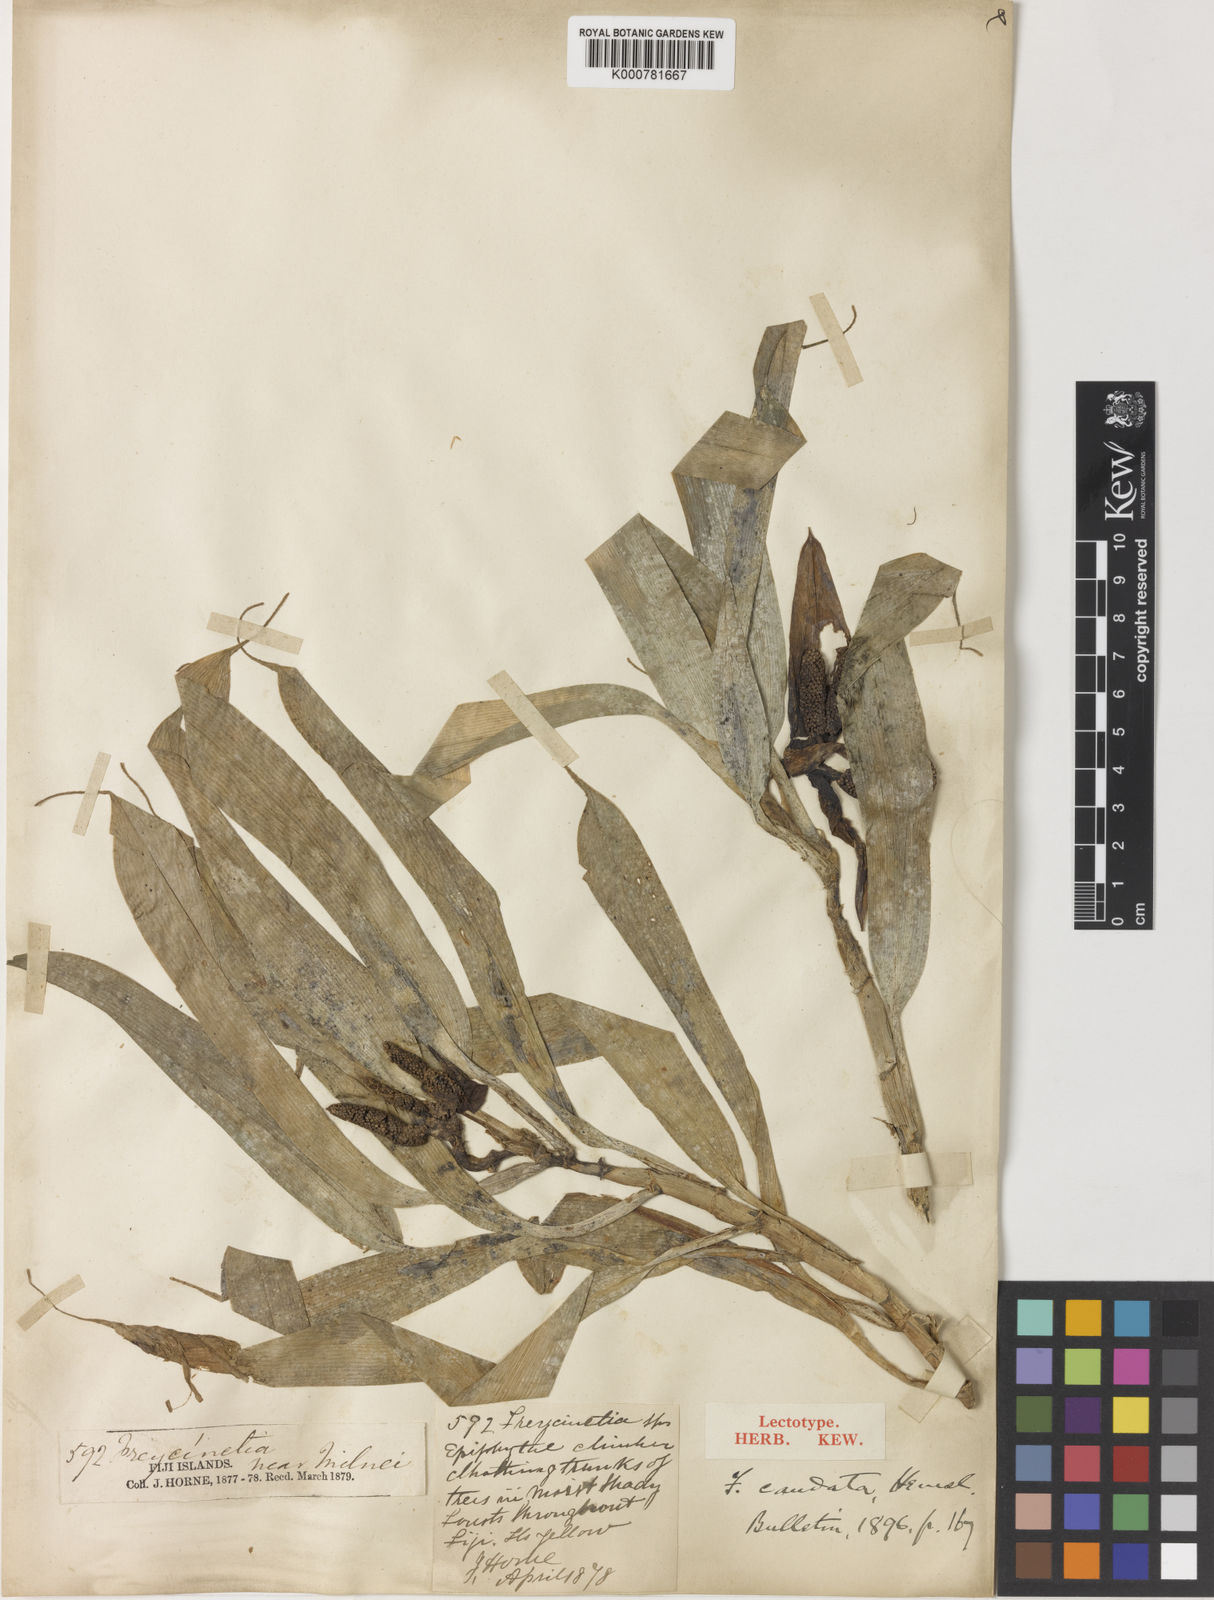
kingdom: Plantae
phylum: Tracheophyta
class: Liliopsida
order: Pandanales
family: Pandanaceae
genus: Freycinetia
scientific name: Freycinetia caudata
